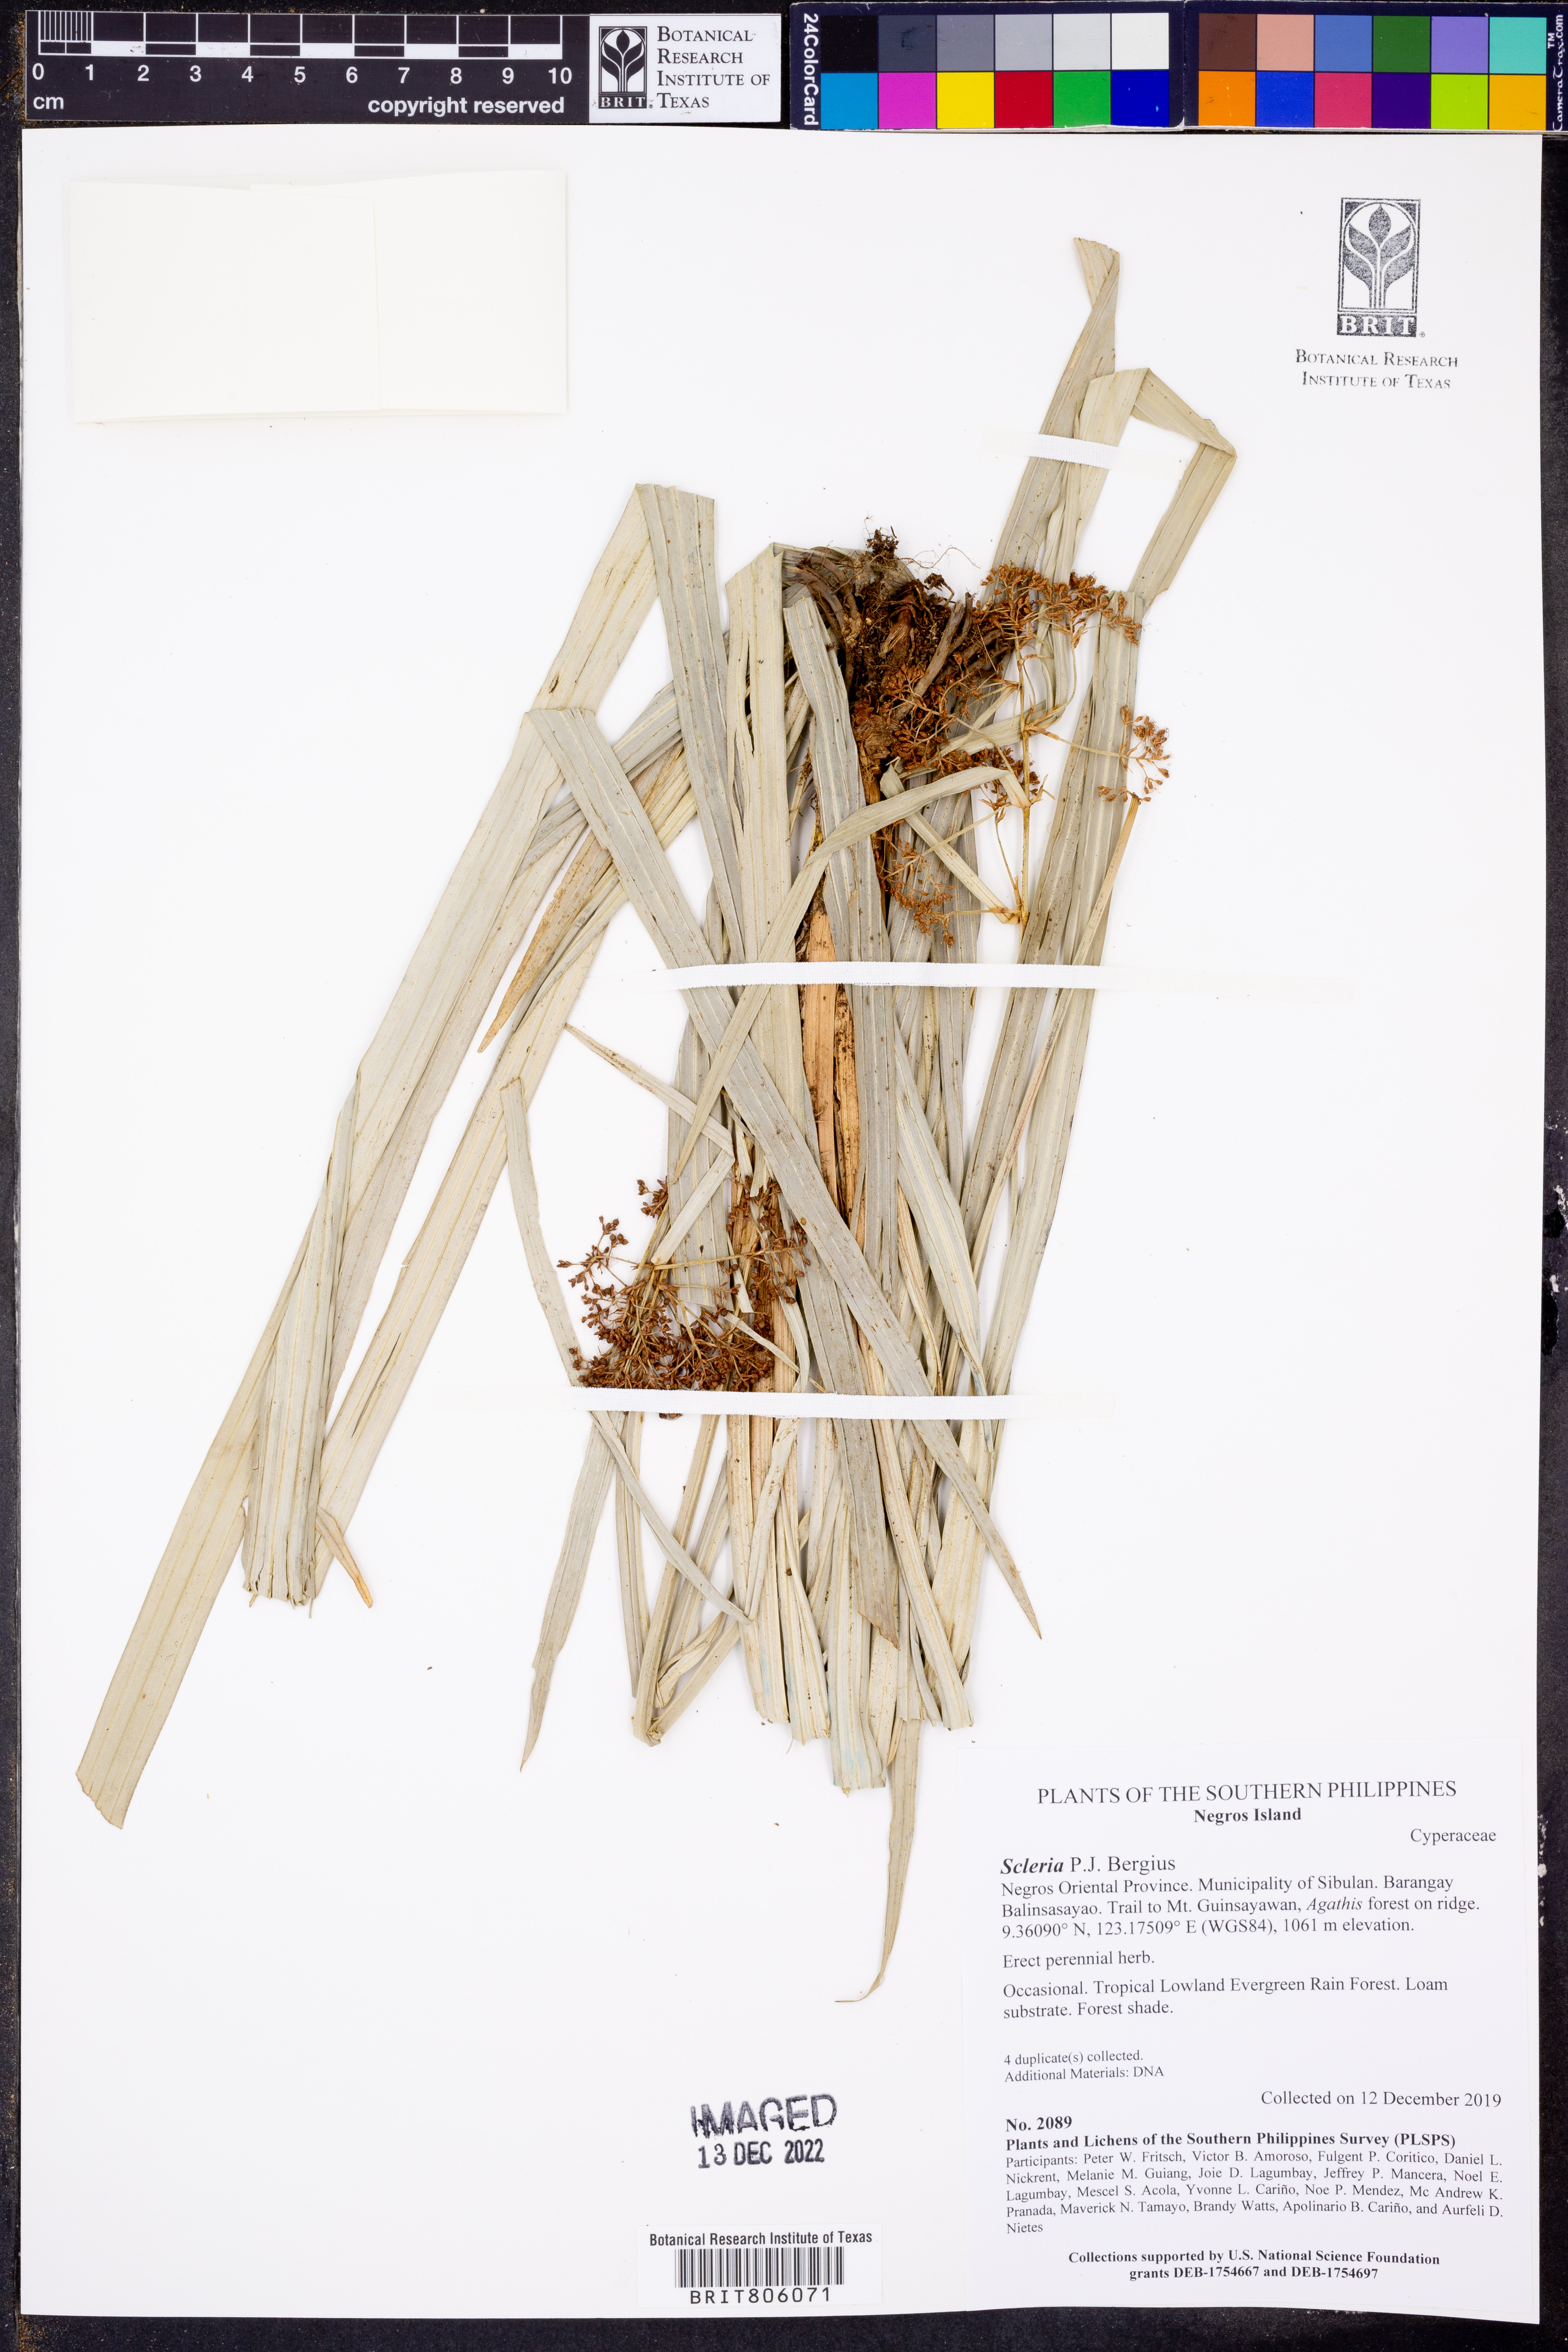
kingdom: Plantae
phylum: Tracheophyta
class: Liliopsida
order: Poales
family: Cyperaceae
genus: Scleria
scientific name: Scleria
